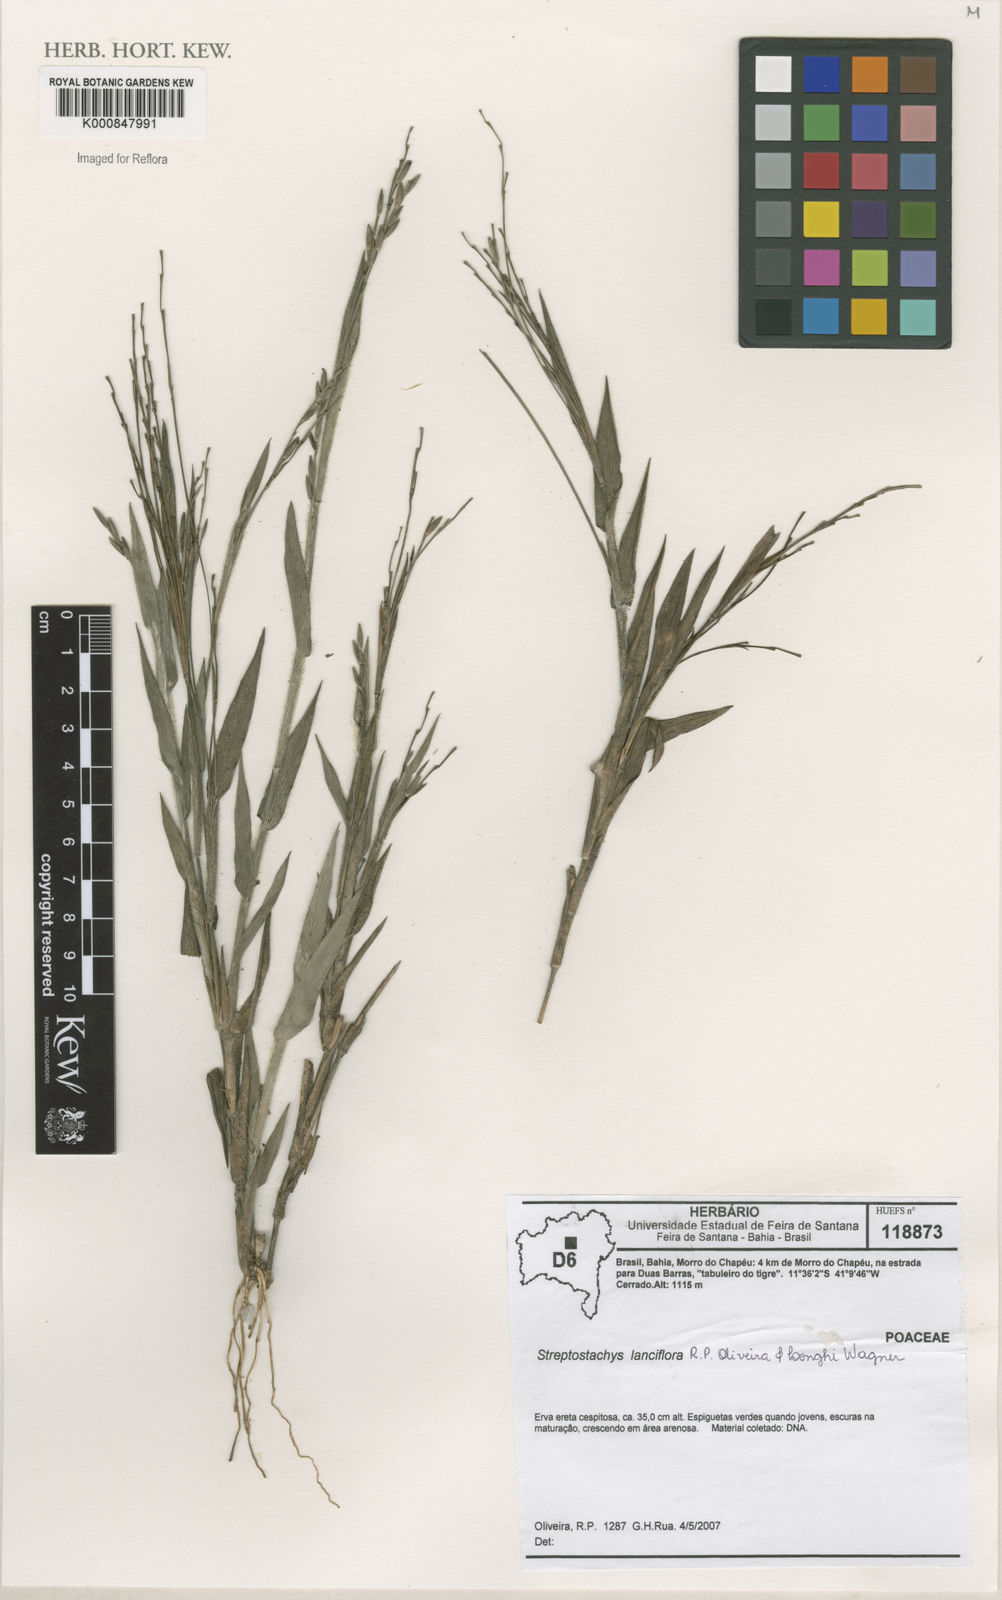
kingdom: Plantae
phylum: Tracheophyta
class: Liliopsida
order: Poales
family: Poaceae
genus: Streptostachys
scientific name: Streptostachys lanciflora
